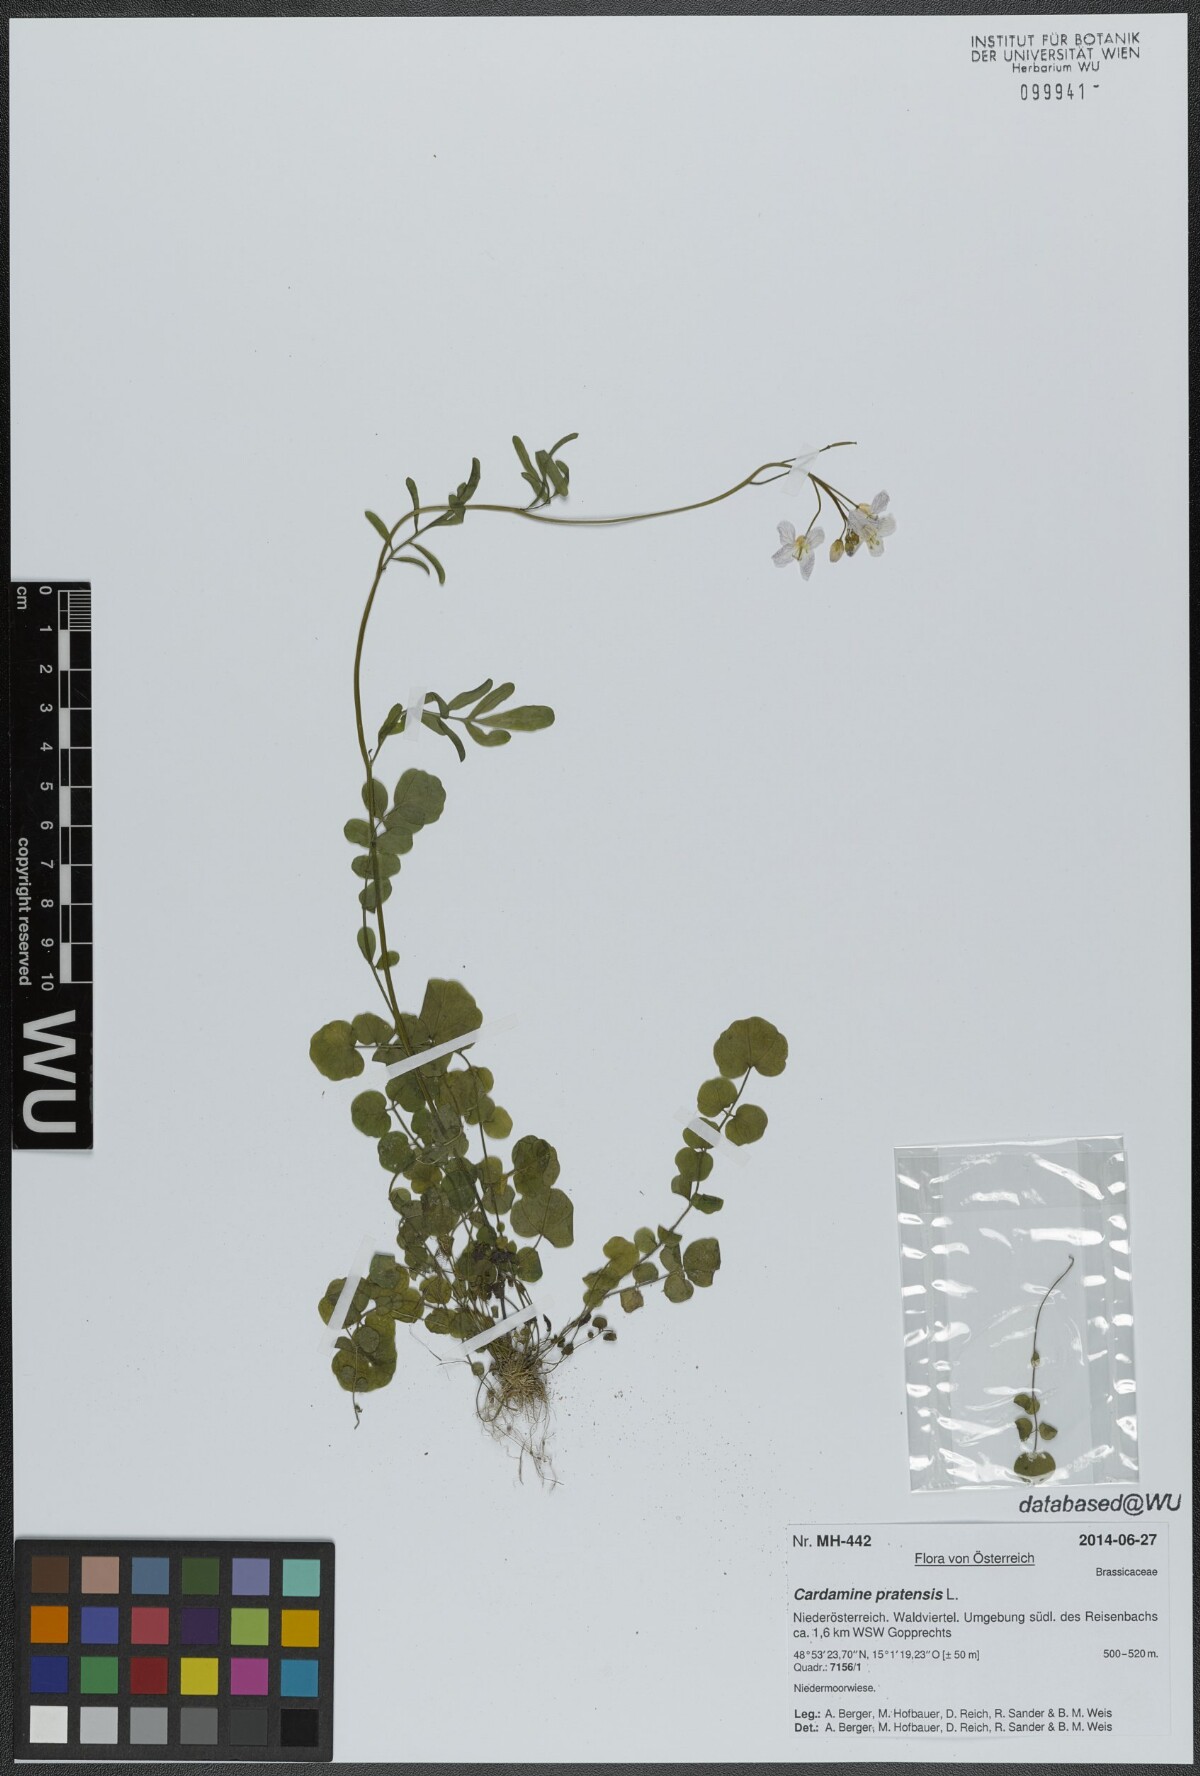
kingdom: Plantae
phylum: Tracheophyta
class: Magnoliopsida
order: Brassicales
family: Brassicaceae
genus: Cardamine
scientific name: Cardamine pratensis
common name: Cuckoo flower
